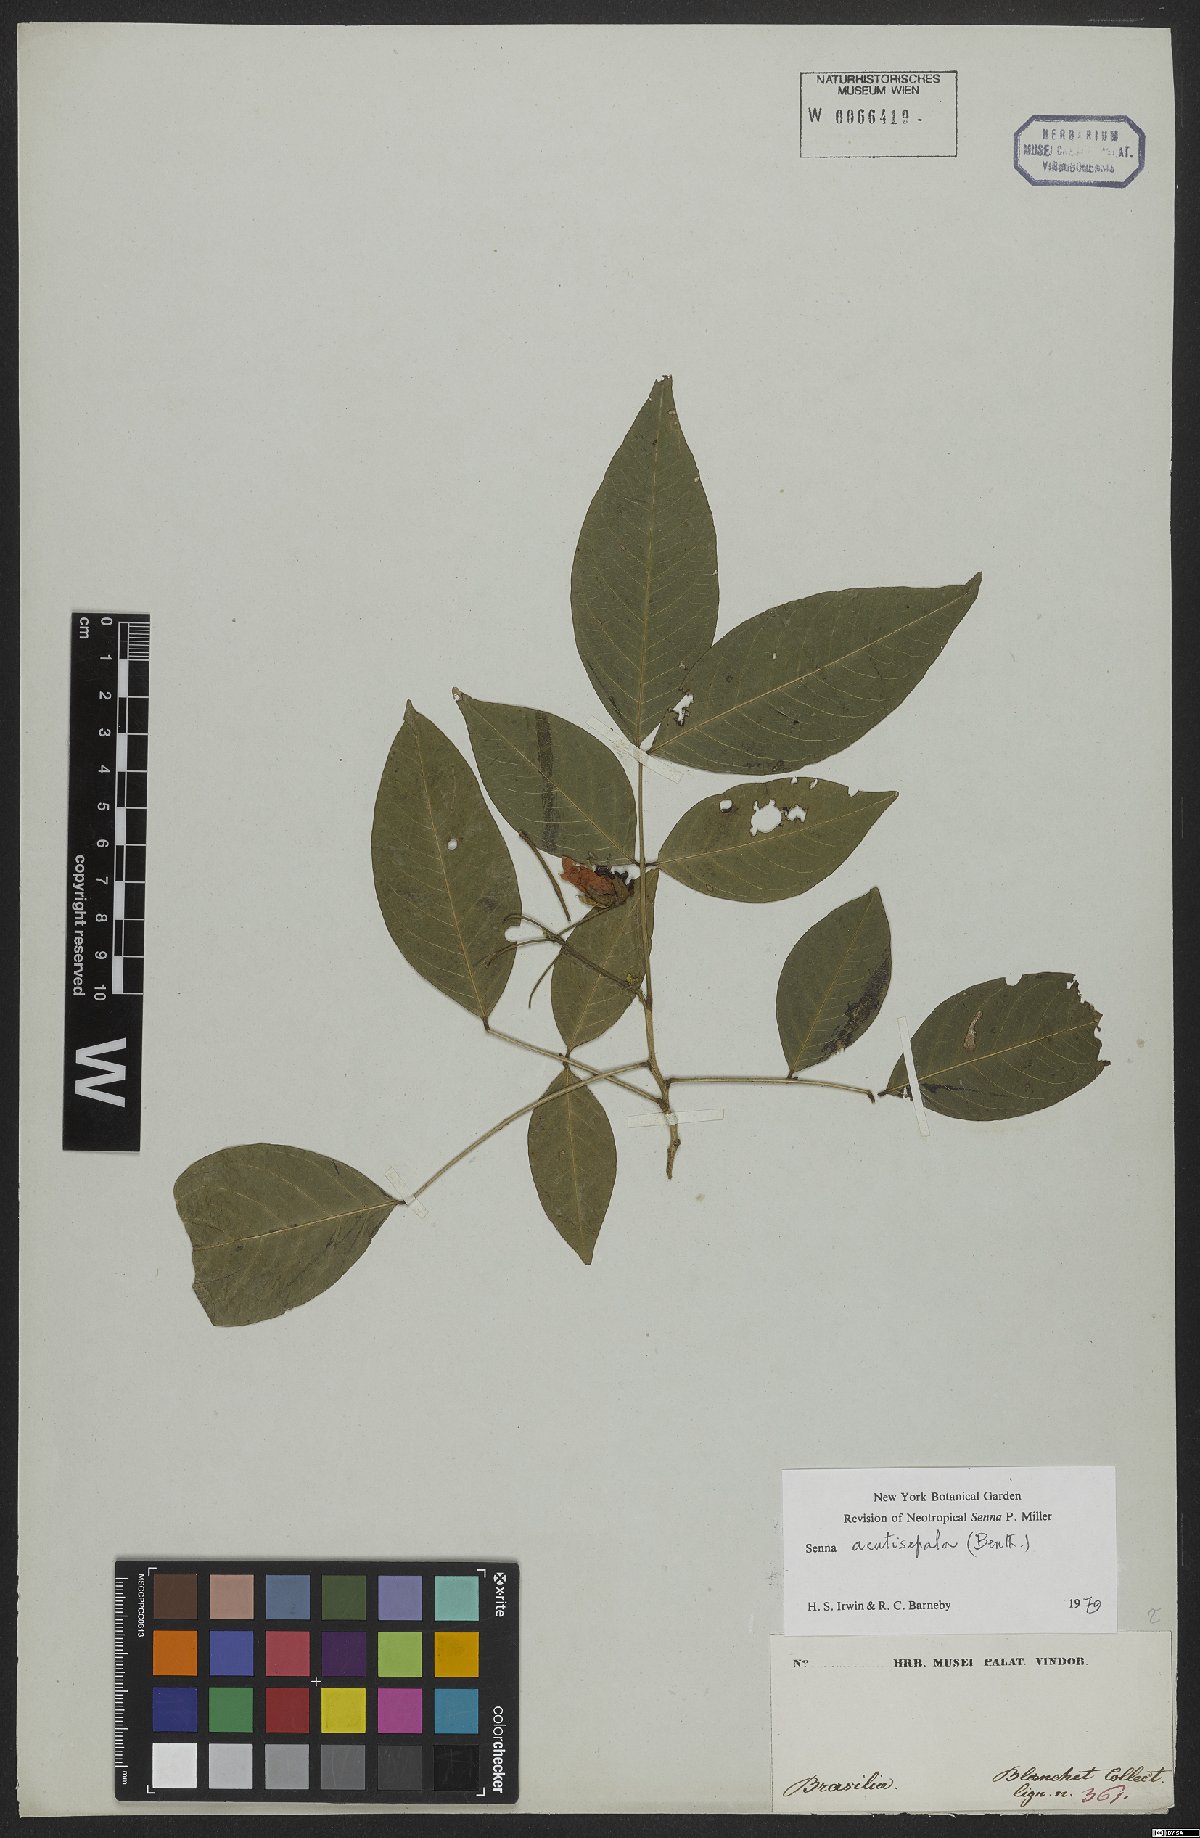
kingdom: Plantae
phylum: Tracheophyta
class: Magnoliopsida
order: Fabales
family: Fabaceae
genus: Senna
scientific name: Senna acutisepala
